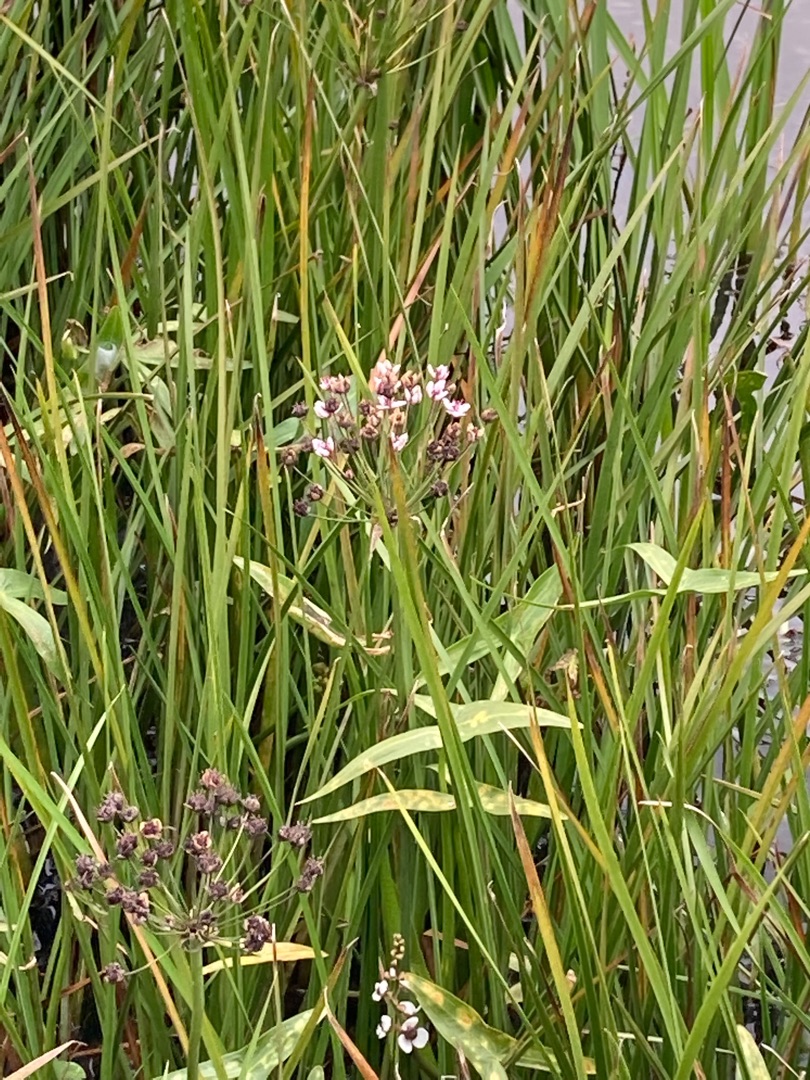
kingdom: Plantae
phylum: Tracheophyta
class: Liliopsida
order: Alismatales
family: Butomaceae
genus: Butomus
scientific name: Butomus umbellatus
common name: Brudelys
